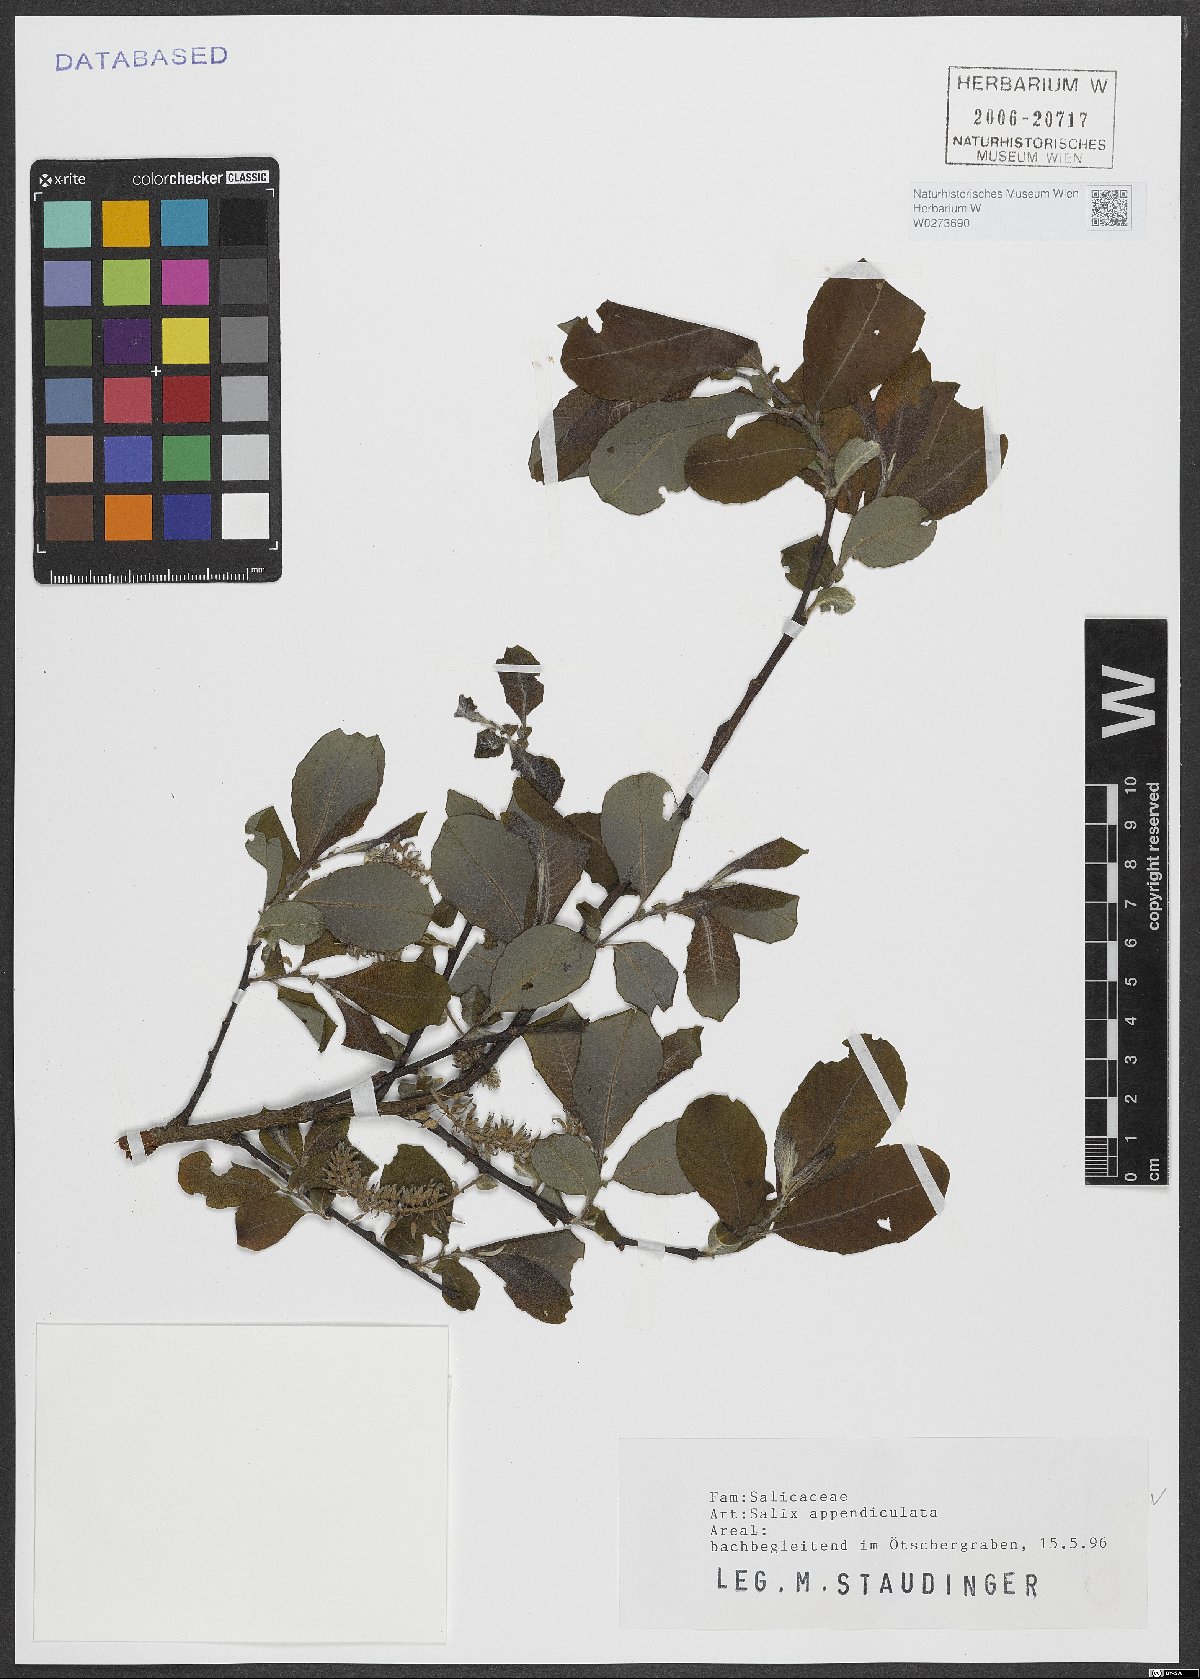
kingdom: Plantae
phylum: Tracheophyta
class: Magnoliopsida
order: Malpighiales
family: Salicaceae
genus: Salix
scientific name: Salix appendiculata
